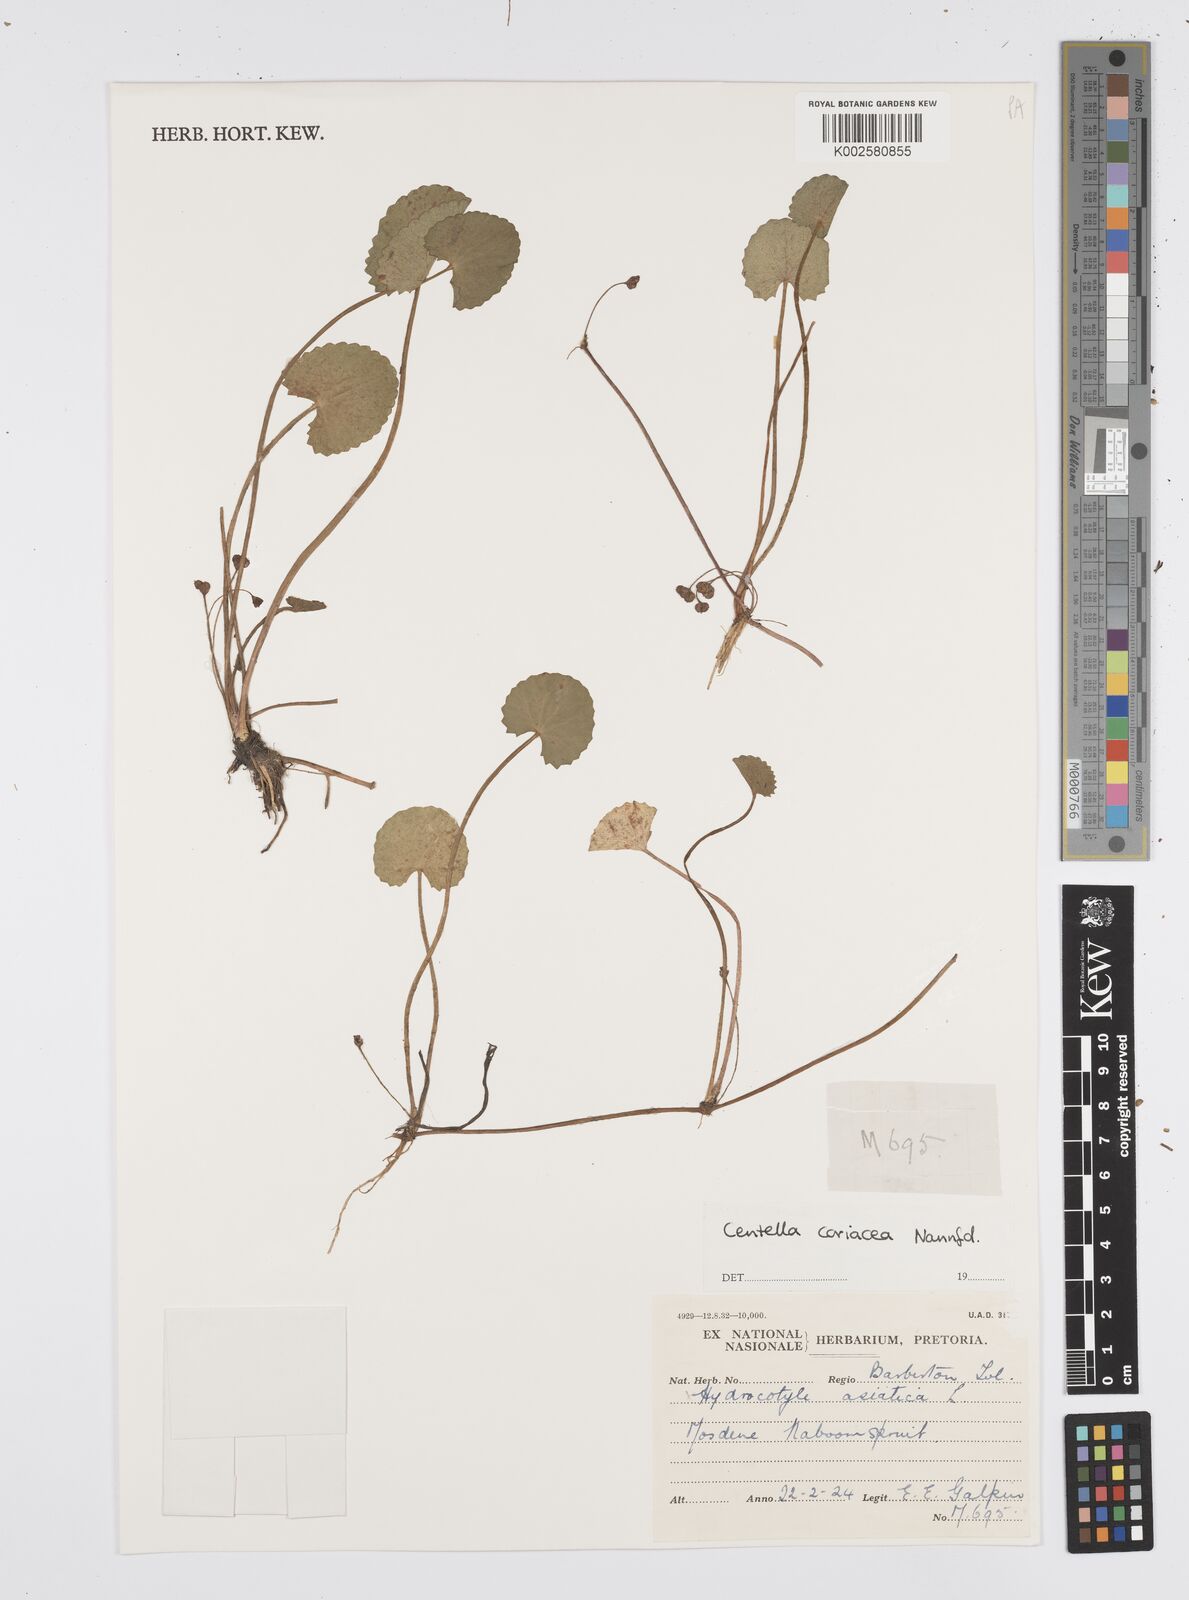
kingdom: Plantae
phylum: Tracheophyta
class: Magnoliopsida
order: Apiales
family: Apiaceae
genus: Centella
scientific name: Centella coriacea
